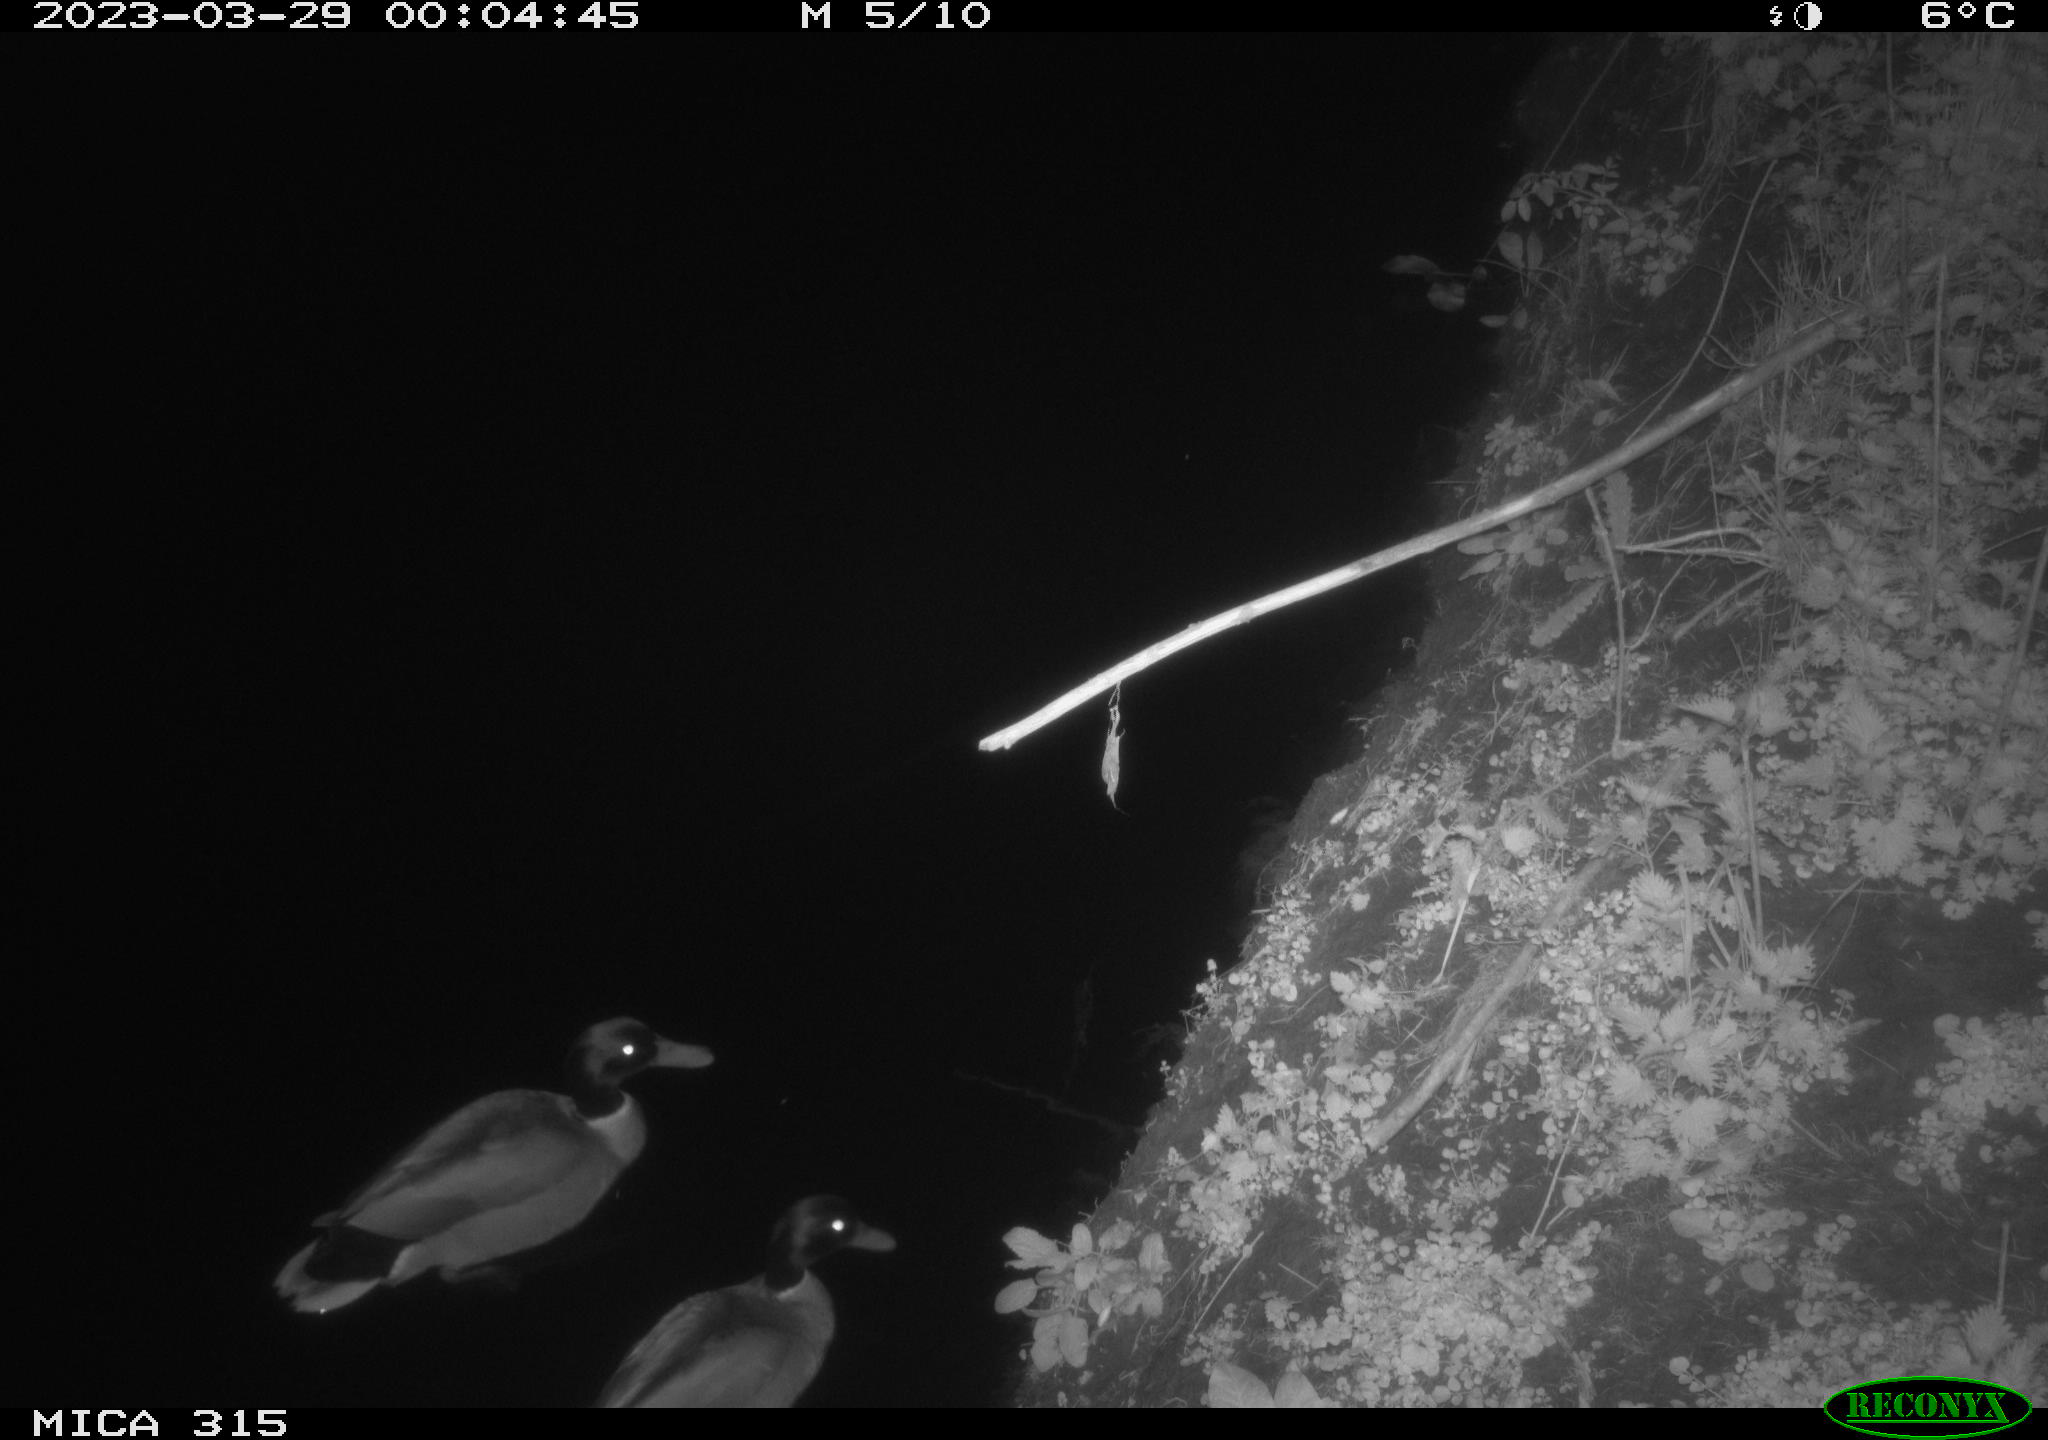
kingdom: Animalia
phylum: Chordata
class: Aves
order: Anseriformes
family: Anatidae
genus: Anas
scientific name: Anas
